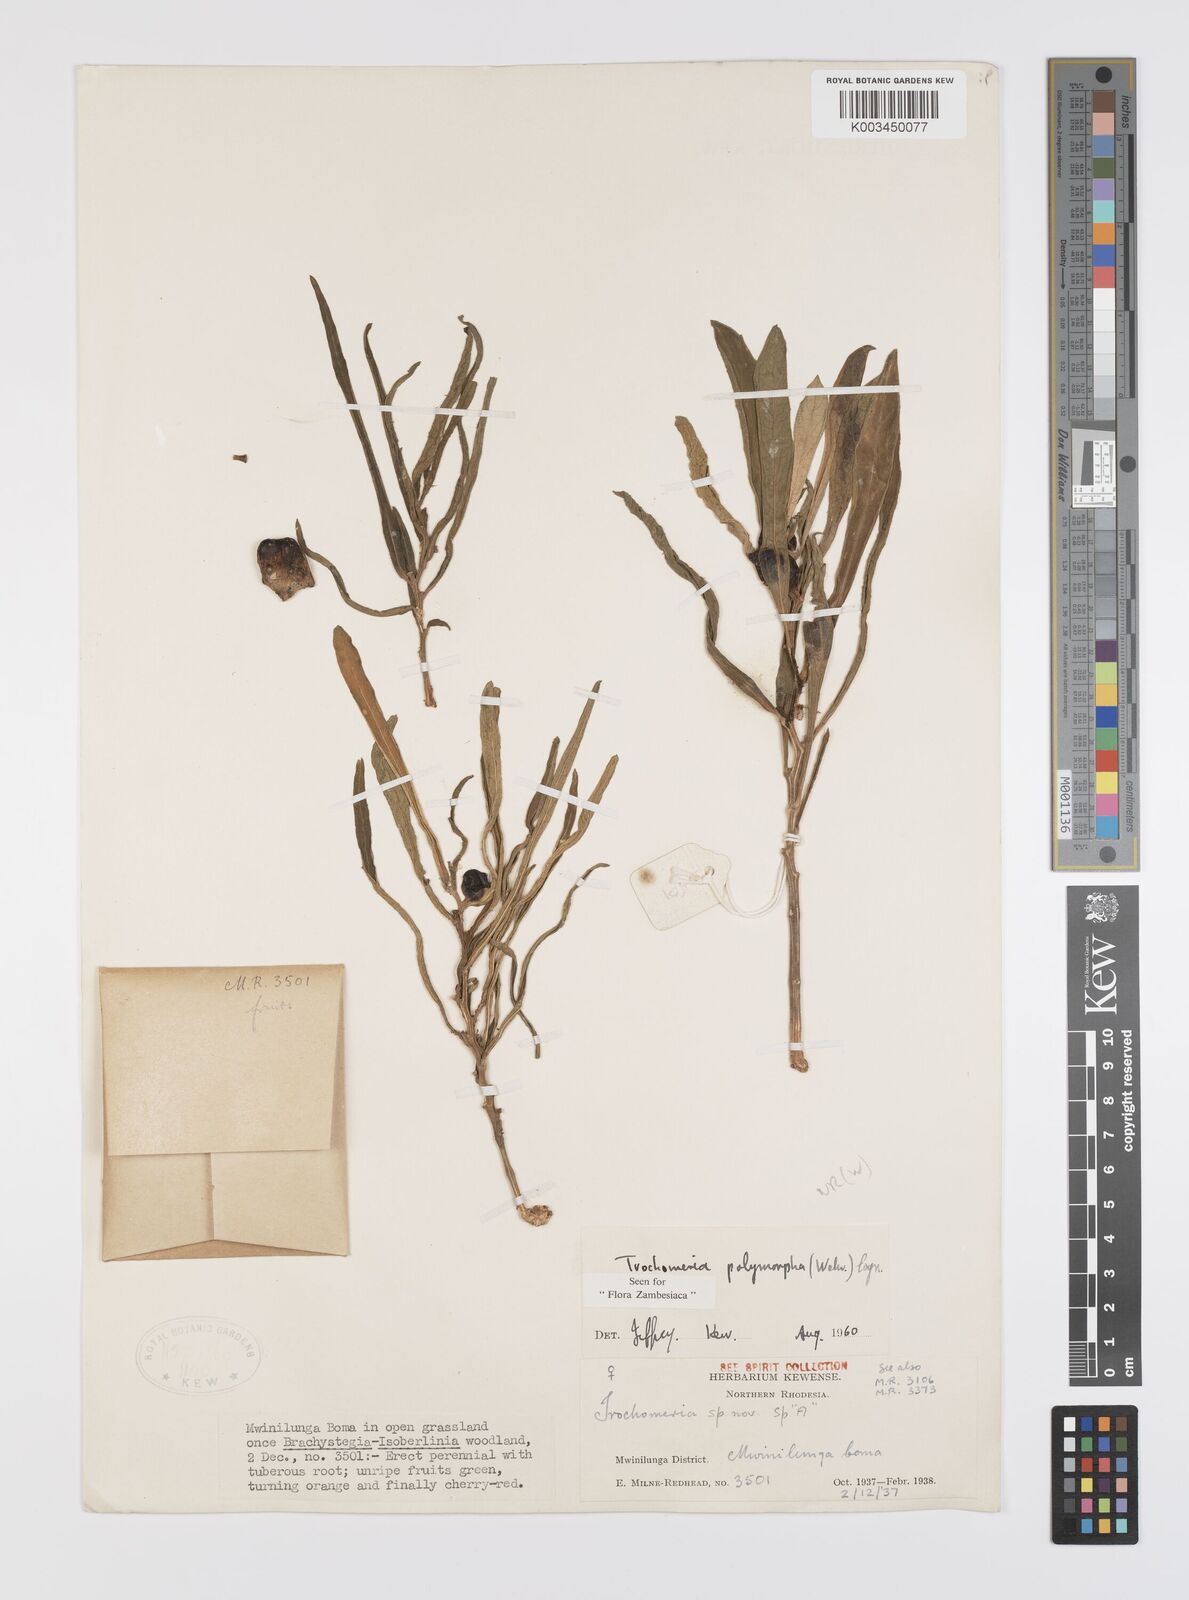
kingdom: Plantae
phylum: Tracheophyta
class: Magnoliopsida
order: Cucurbitales
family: Cucurbitaceae
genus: Trochomeria
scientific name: Trochomeria polymorpha
